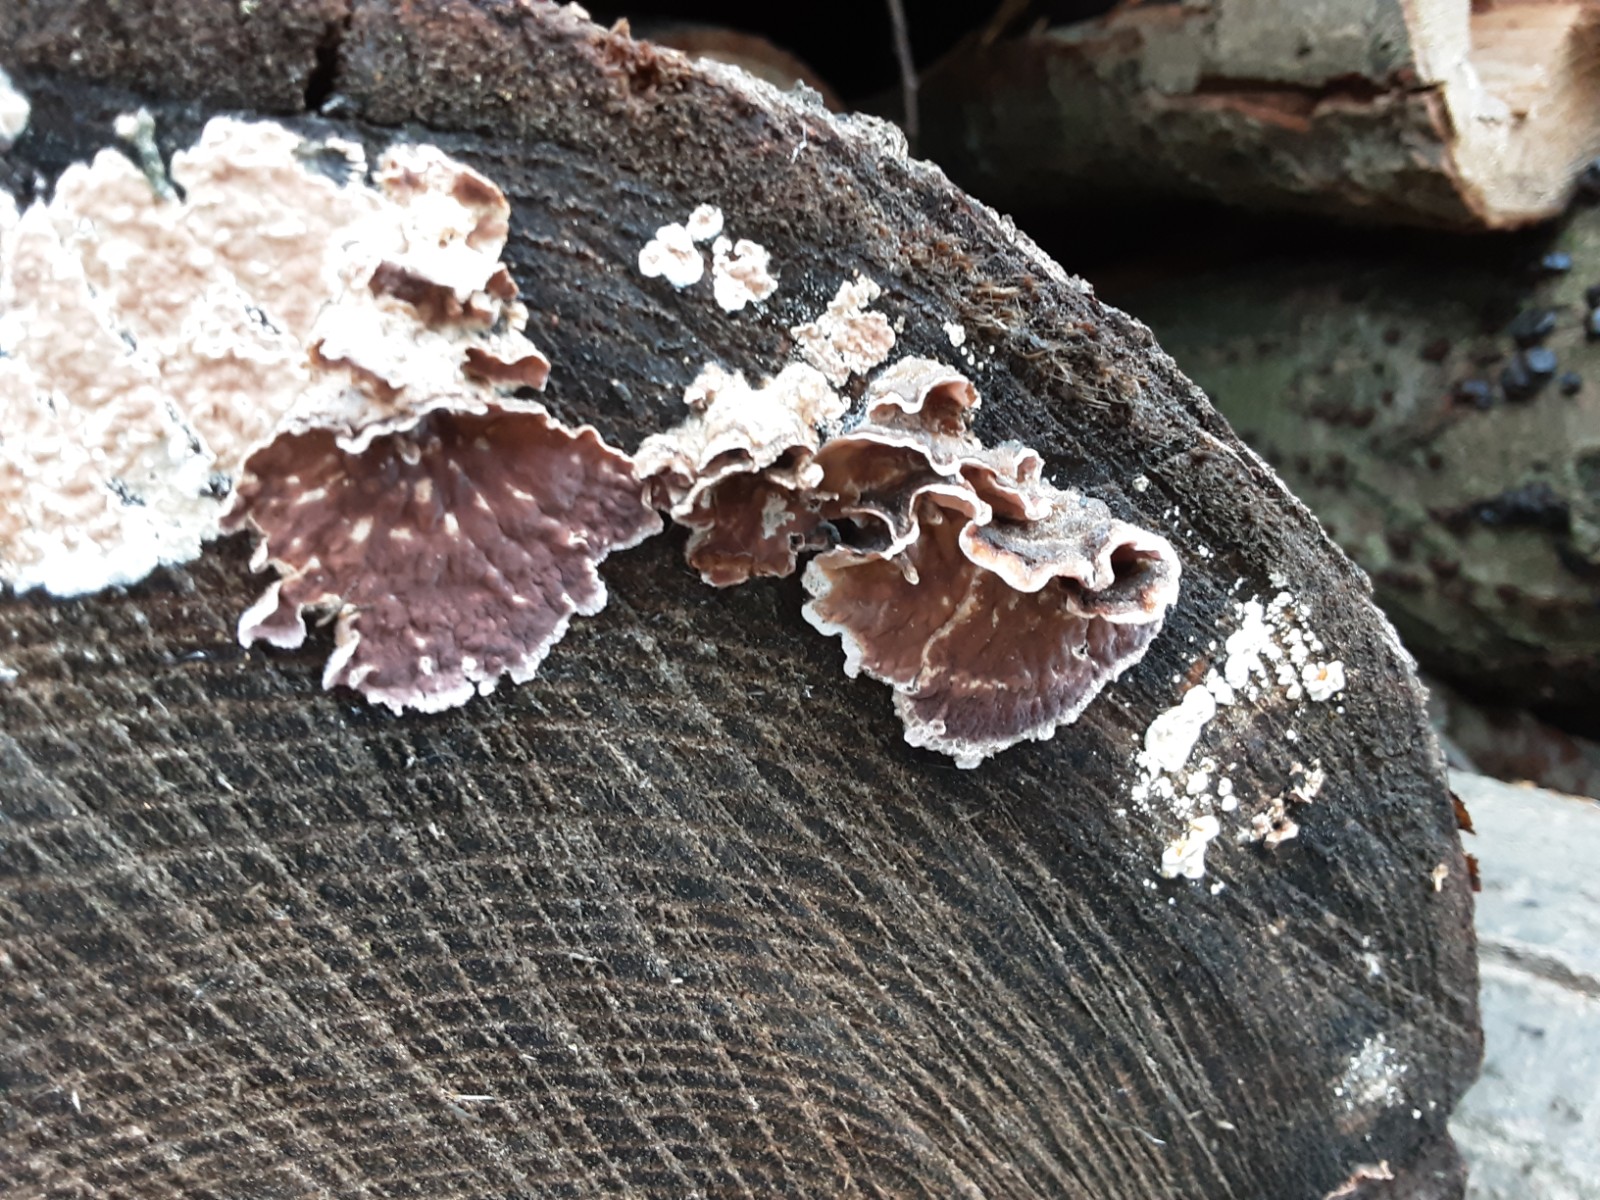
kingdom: Fungi
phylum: Basidiomycota
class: Agaricomycetes
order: Agaricales
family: Cyphellaceae
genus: Chondrostereum
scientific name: Chondrostereum purpureum
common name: purpurlædersvamp
